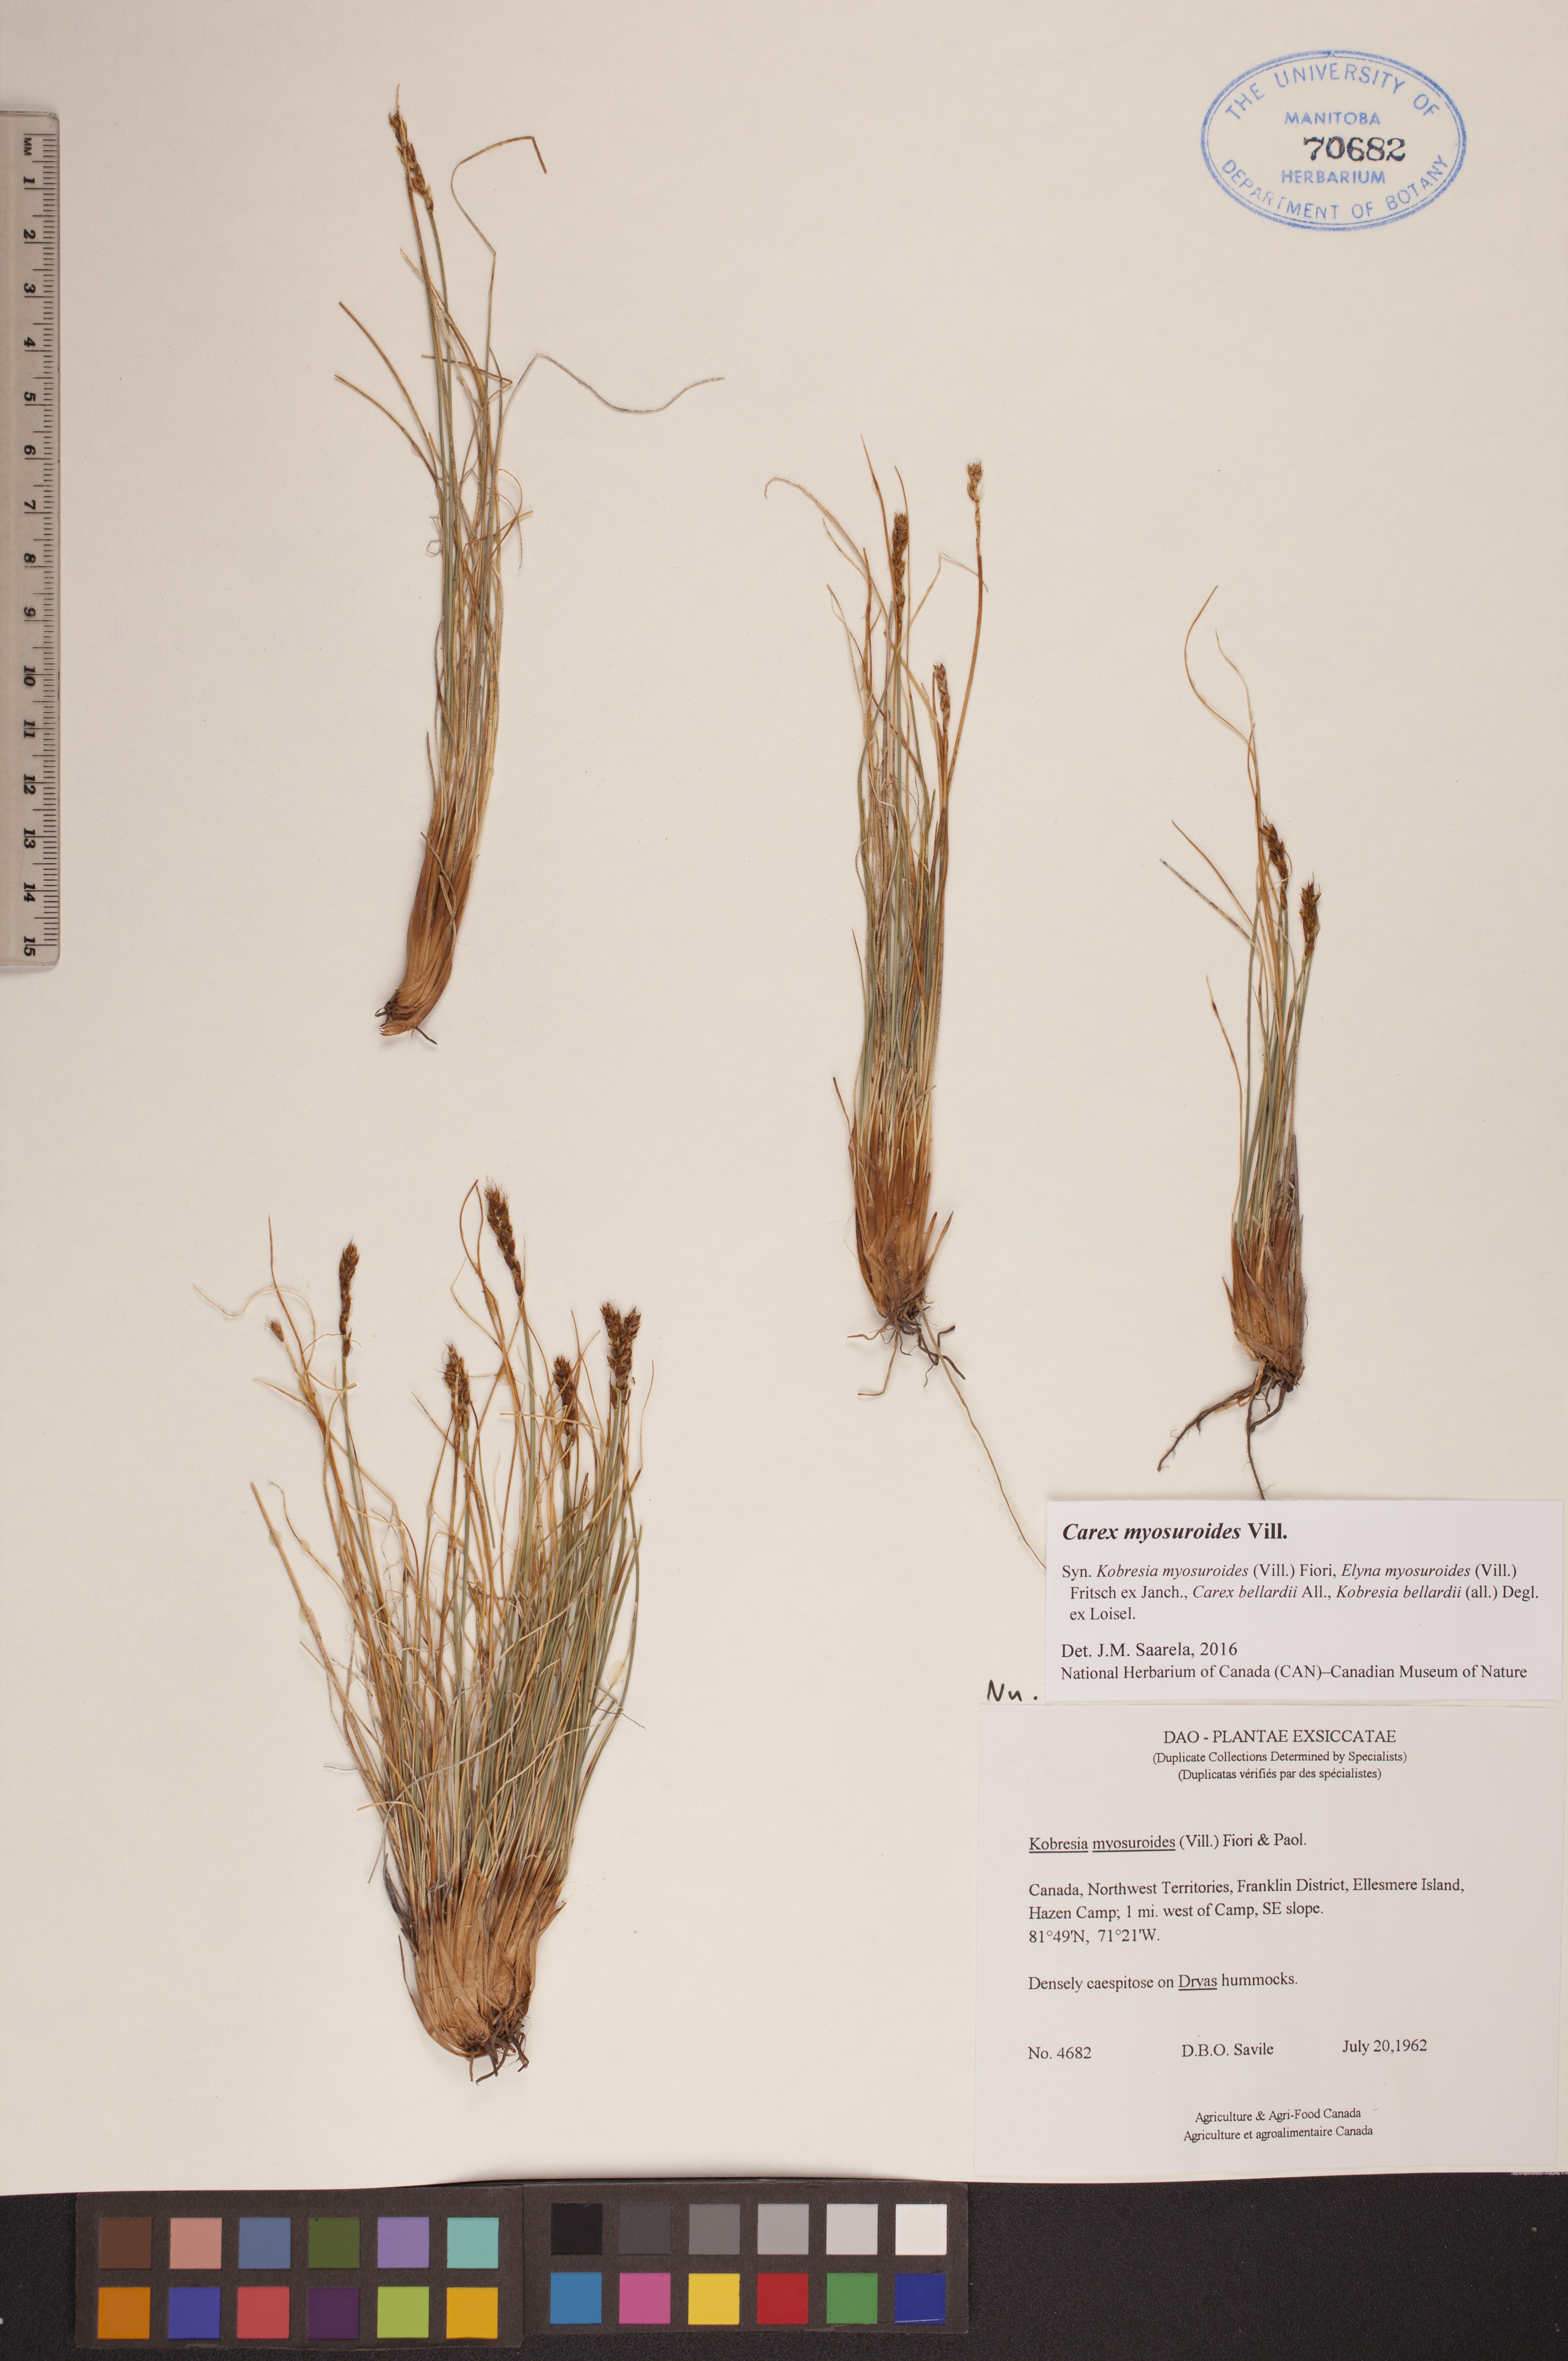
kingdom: Plantae
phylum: Tracheophyta
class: Liliopsida
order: Poales
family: Cyperaceae
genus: Carex
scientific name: Carex myosuroides
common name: Bellard's bog sedge
